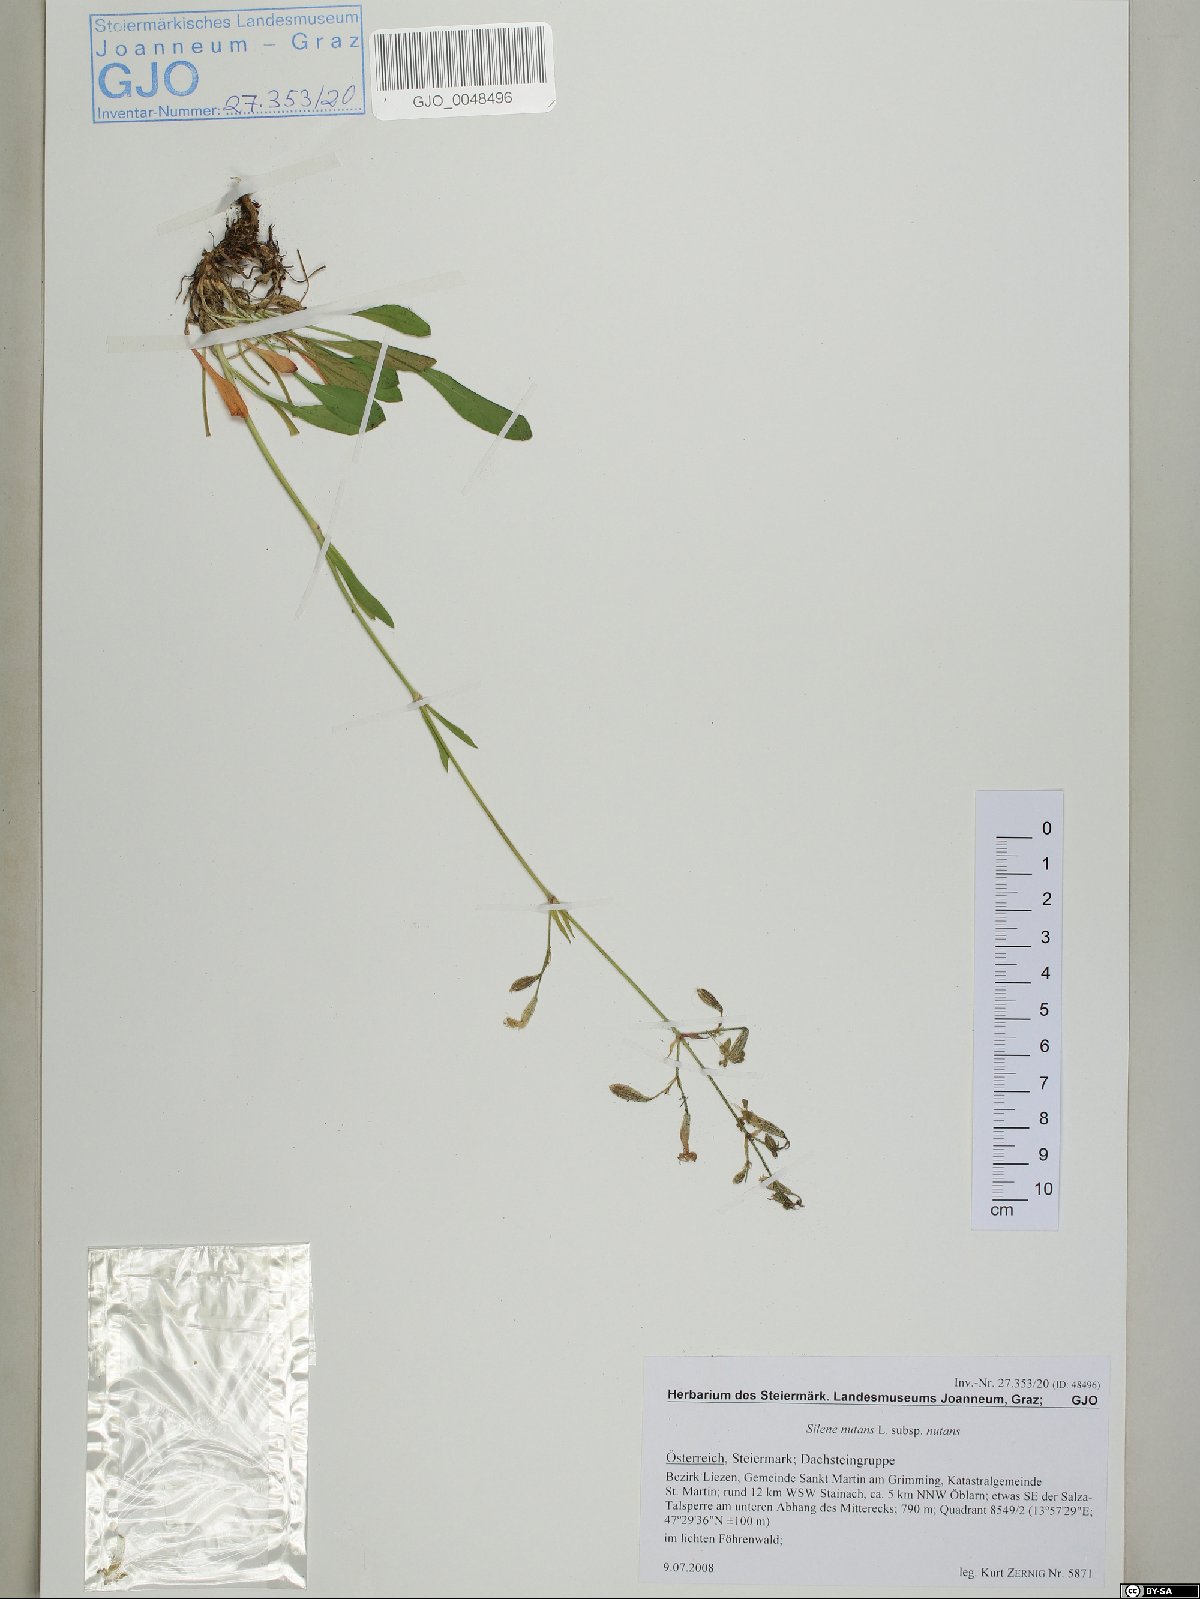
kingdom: Plantae
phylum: Tracheophyta
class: Magnoliopsida
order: Caryophyllales
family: Caryophyllaceae
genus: Silene
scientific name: Silene nutans
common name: Nottingham catchfly
